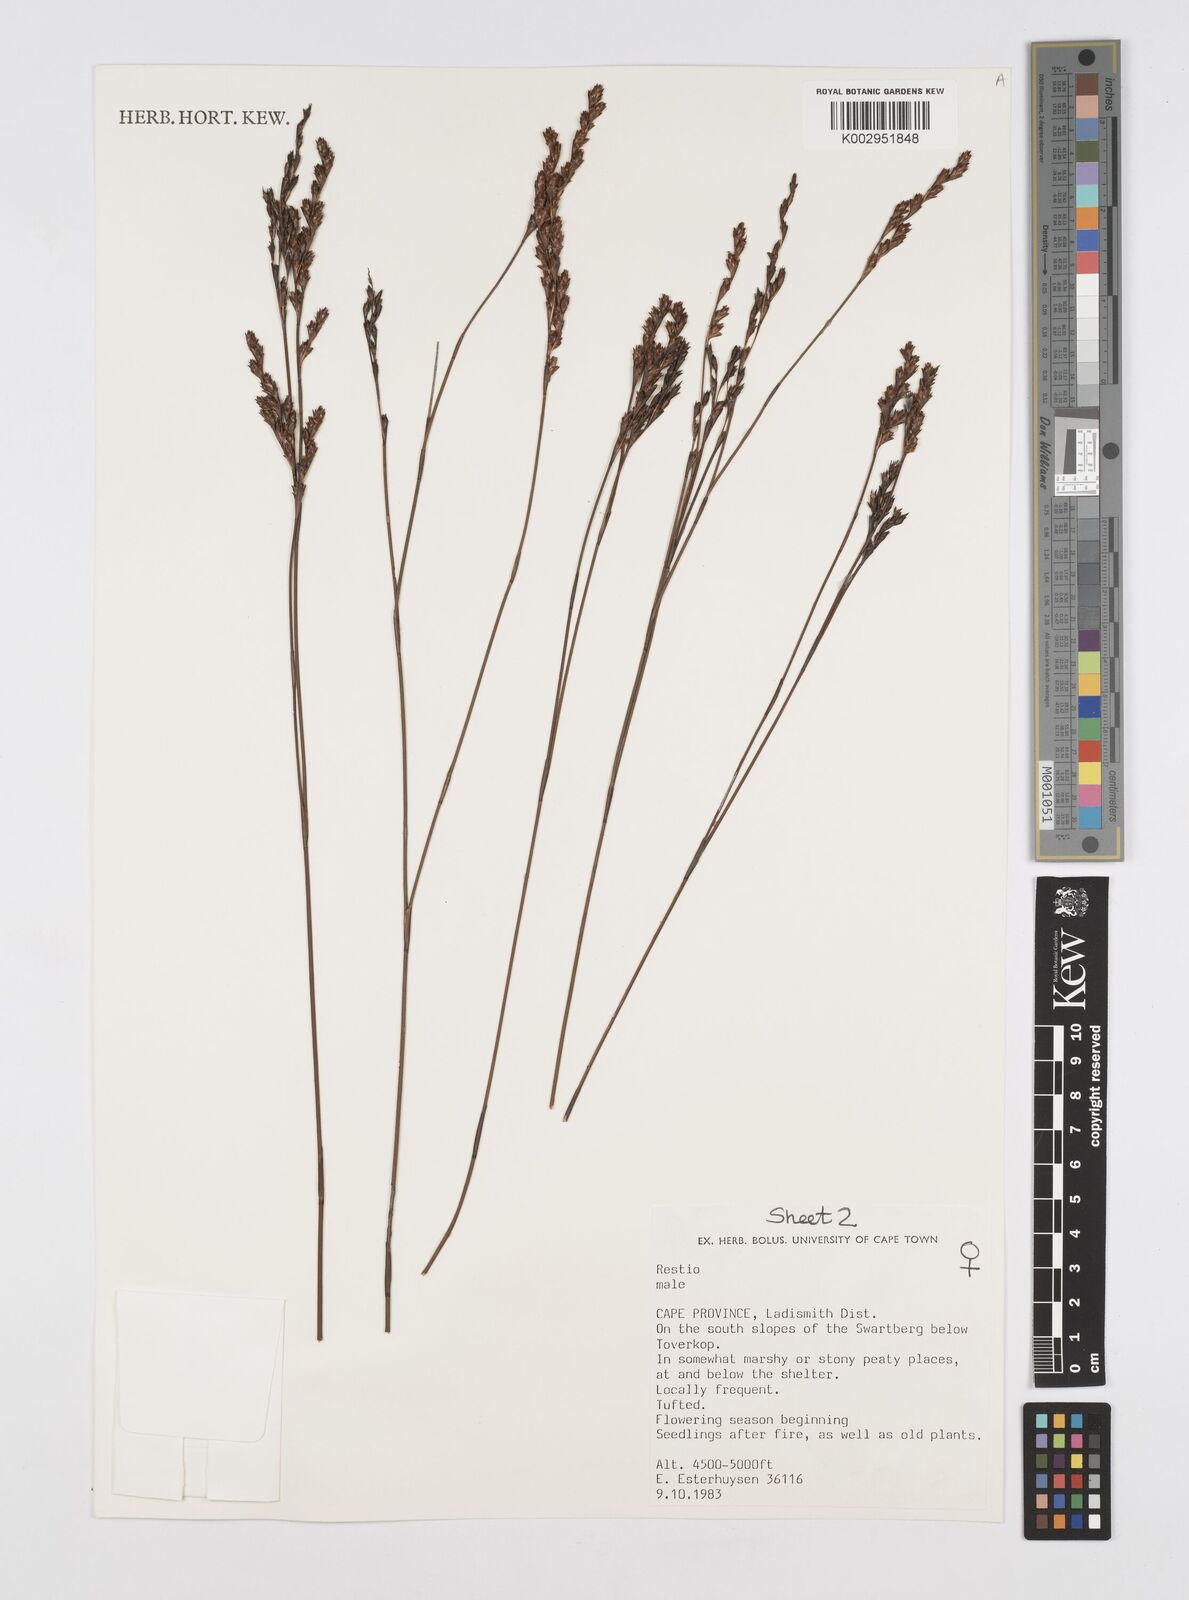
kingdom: Plantae
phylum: Tracheophyta
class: Liliopsida
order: Poales
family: Restionaceae
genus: Restio
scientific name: Restio
